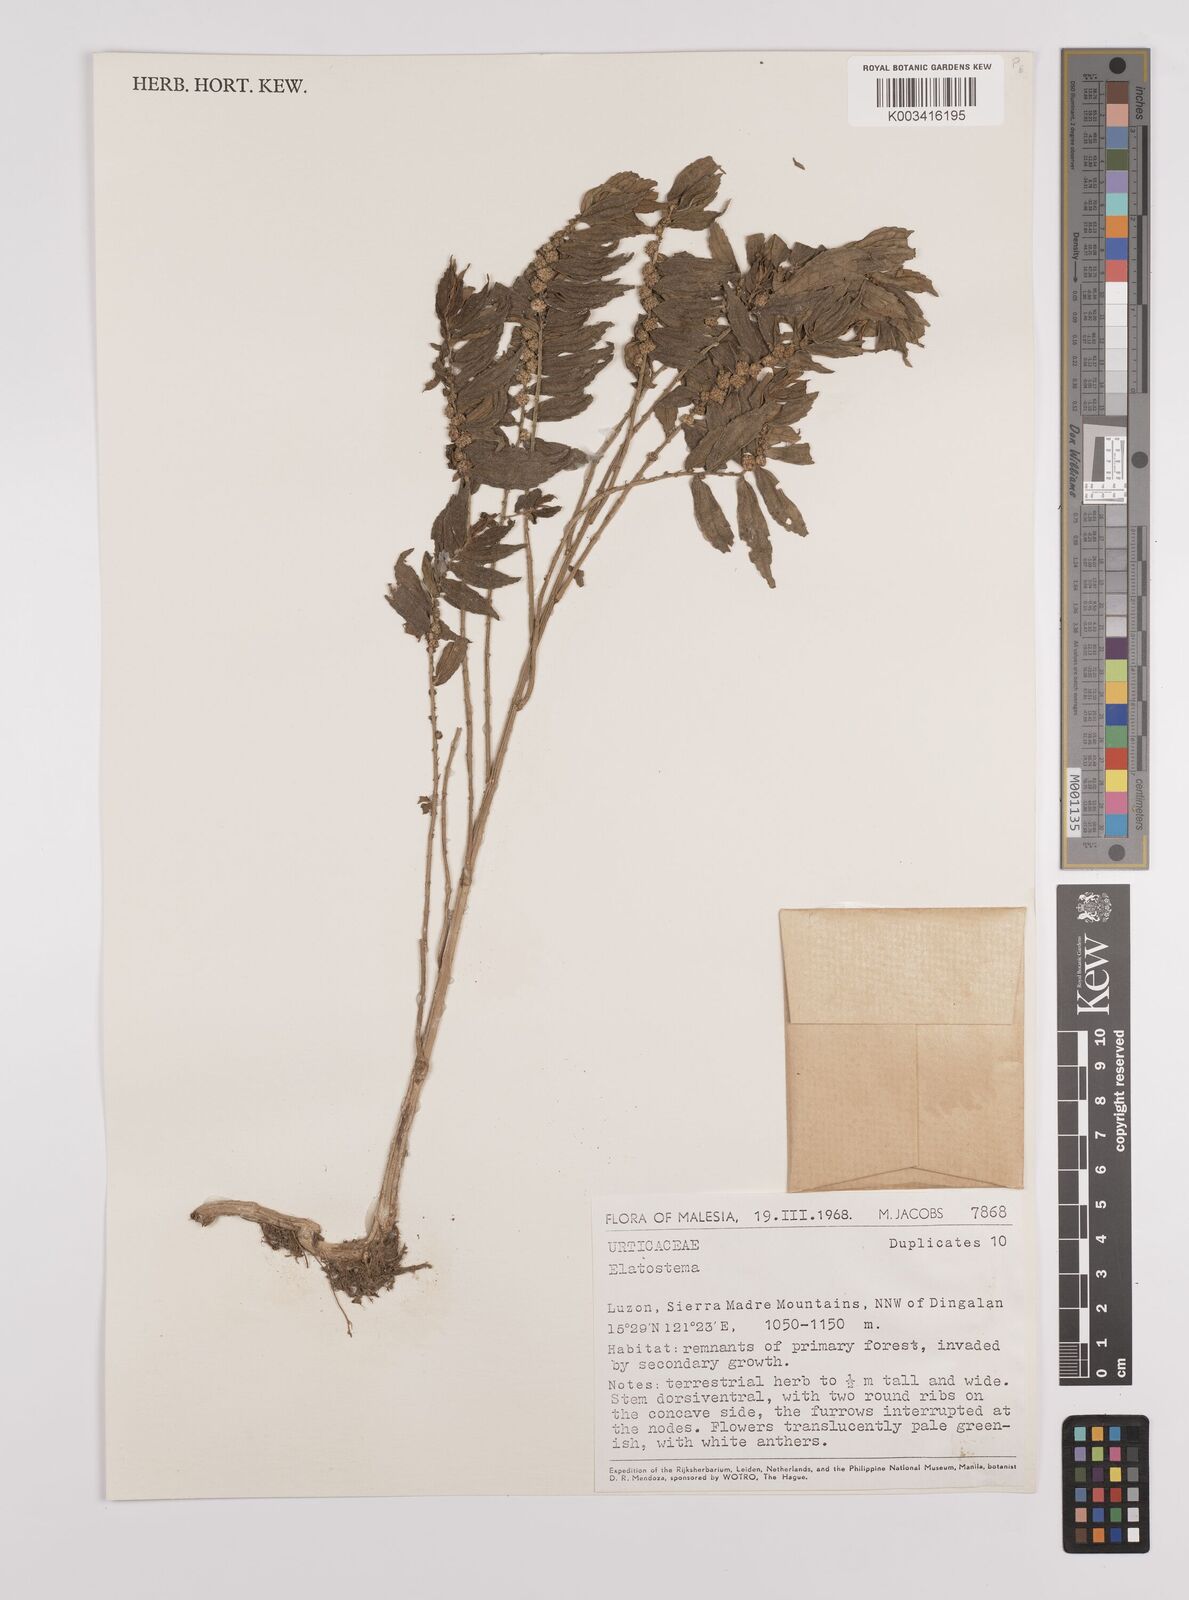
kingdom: Plantae
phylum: Tracheophyta
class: Magnoliopsida
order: Rosales
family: Urticaceae
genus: Elatostema
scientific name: Elatostema
